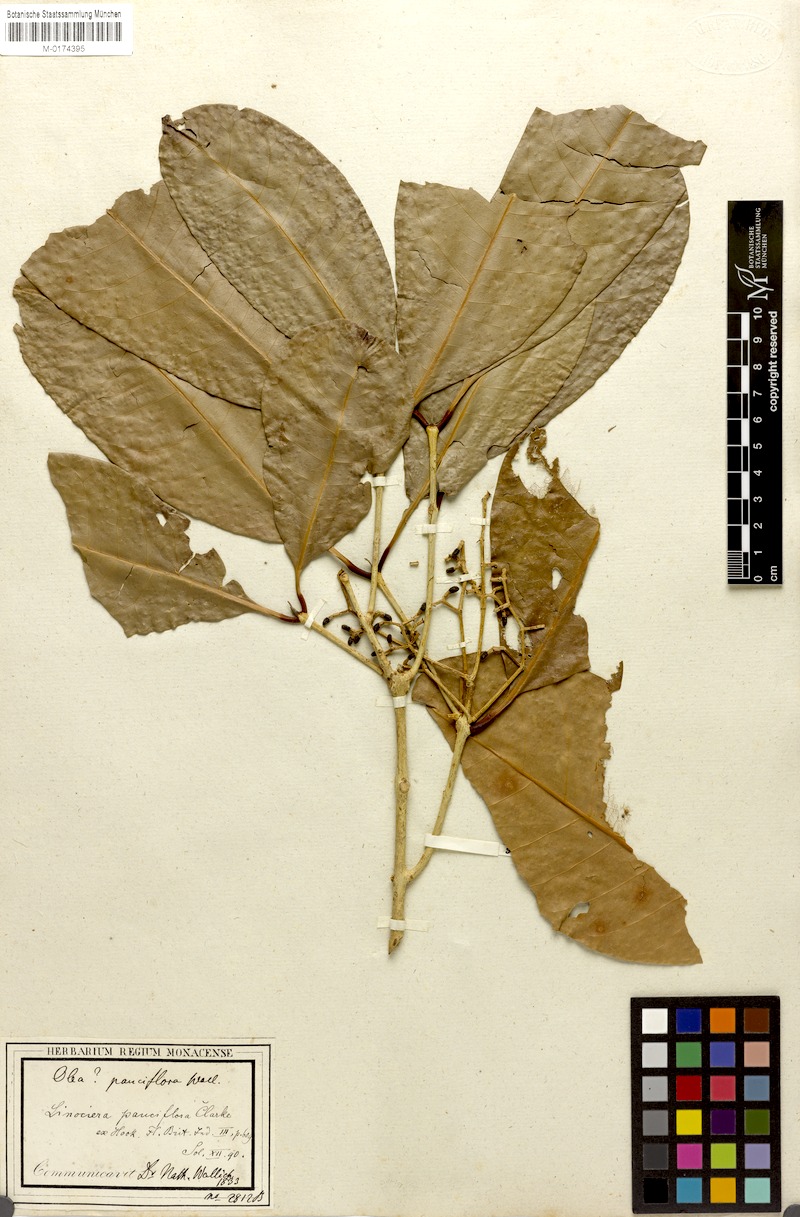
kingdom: Plantae
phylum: Tracheophyta
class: Magnoliopsida
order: Lamiales
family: Oleaceae
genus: Chionanthus
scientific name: Chionanthus ramiflorus
